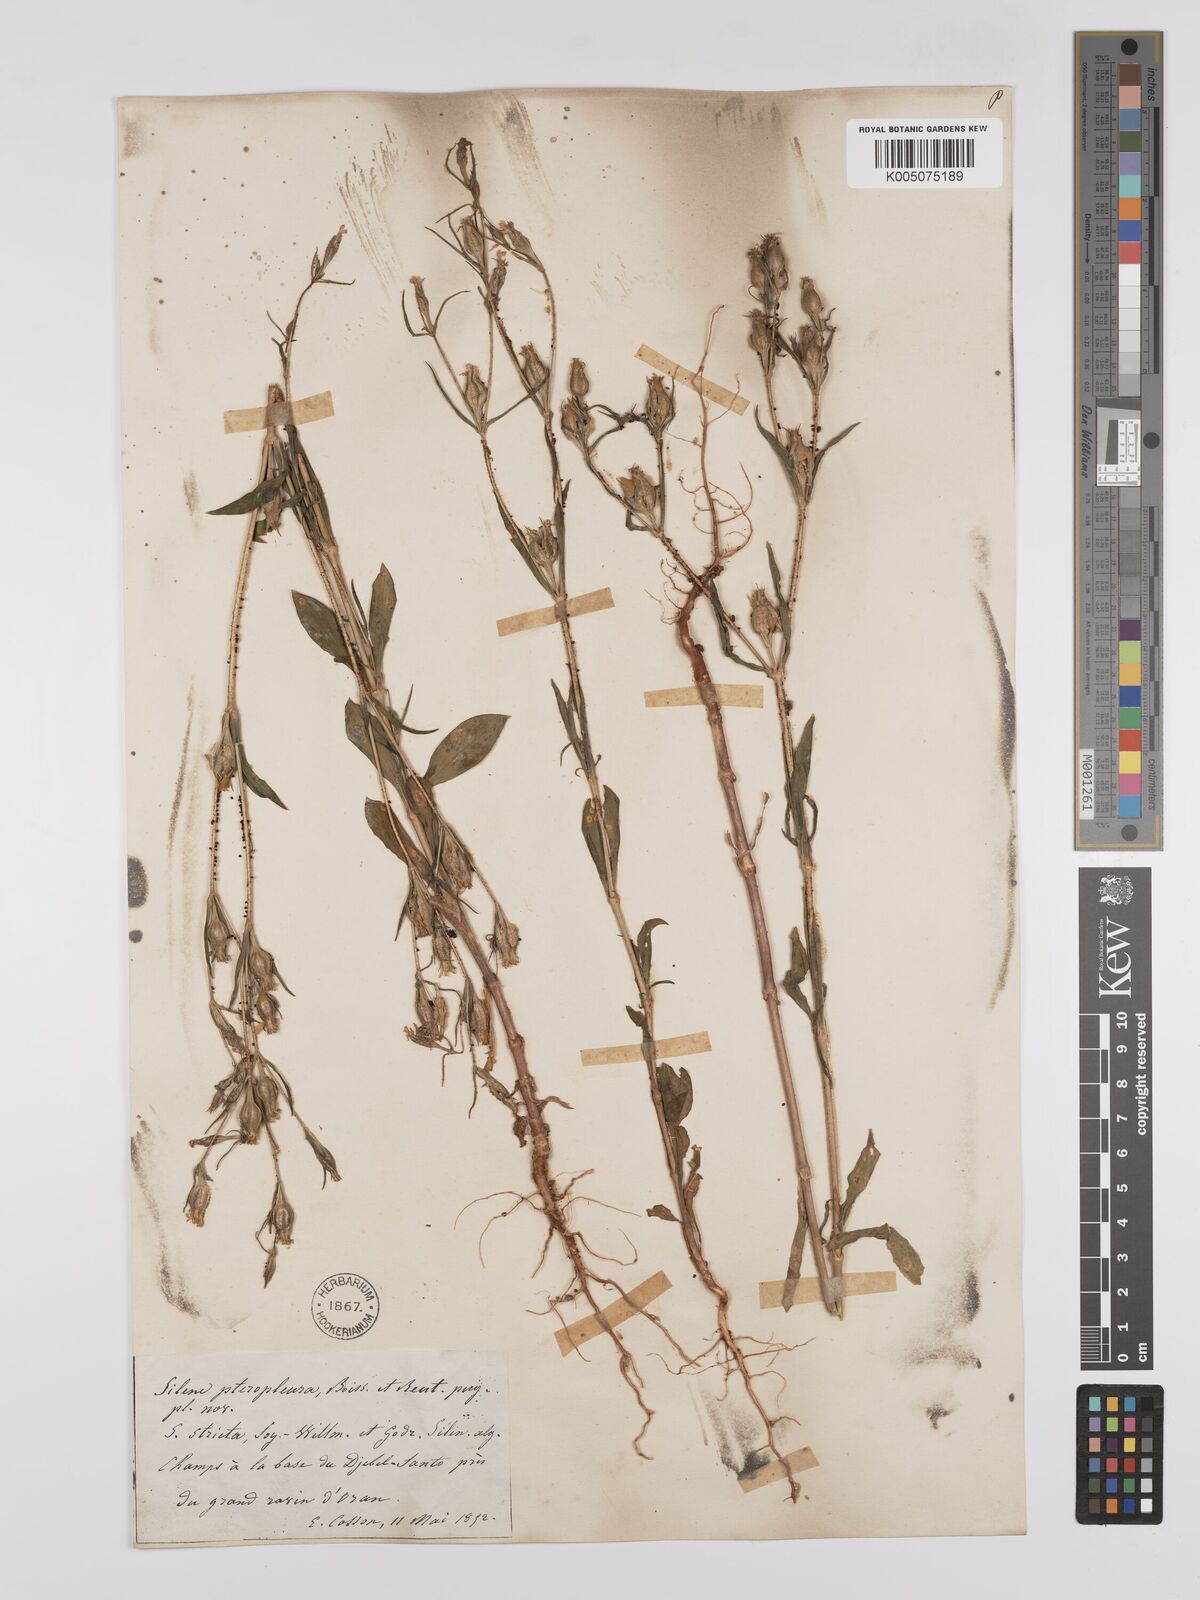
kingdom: Plantae
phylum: Tracheophyta
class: Magnoliopsida
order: Caryophyllales
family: Caryophyllaceae
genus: Silene
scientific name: Silene stricta
